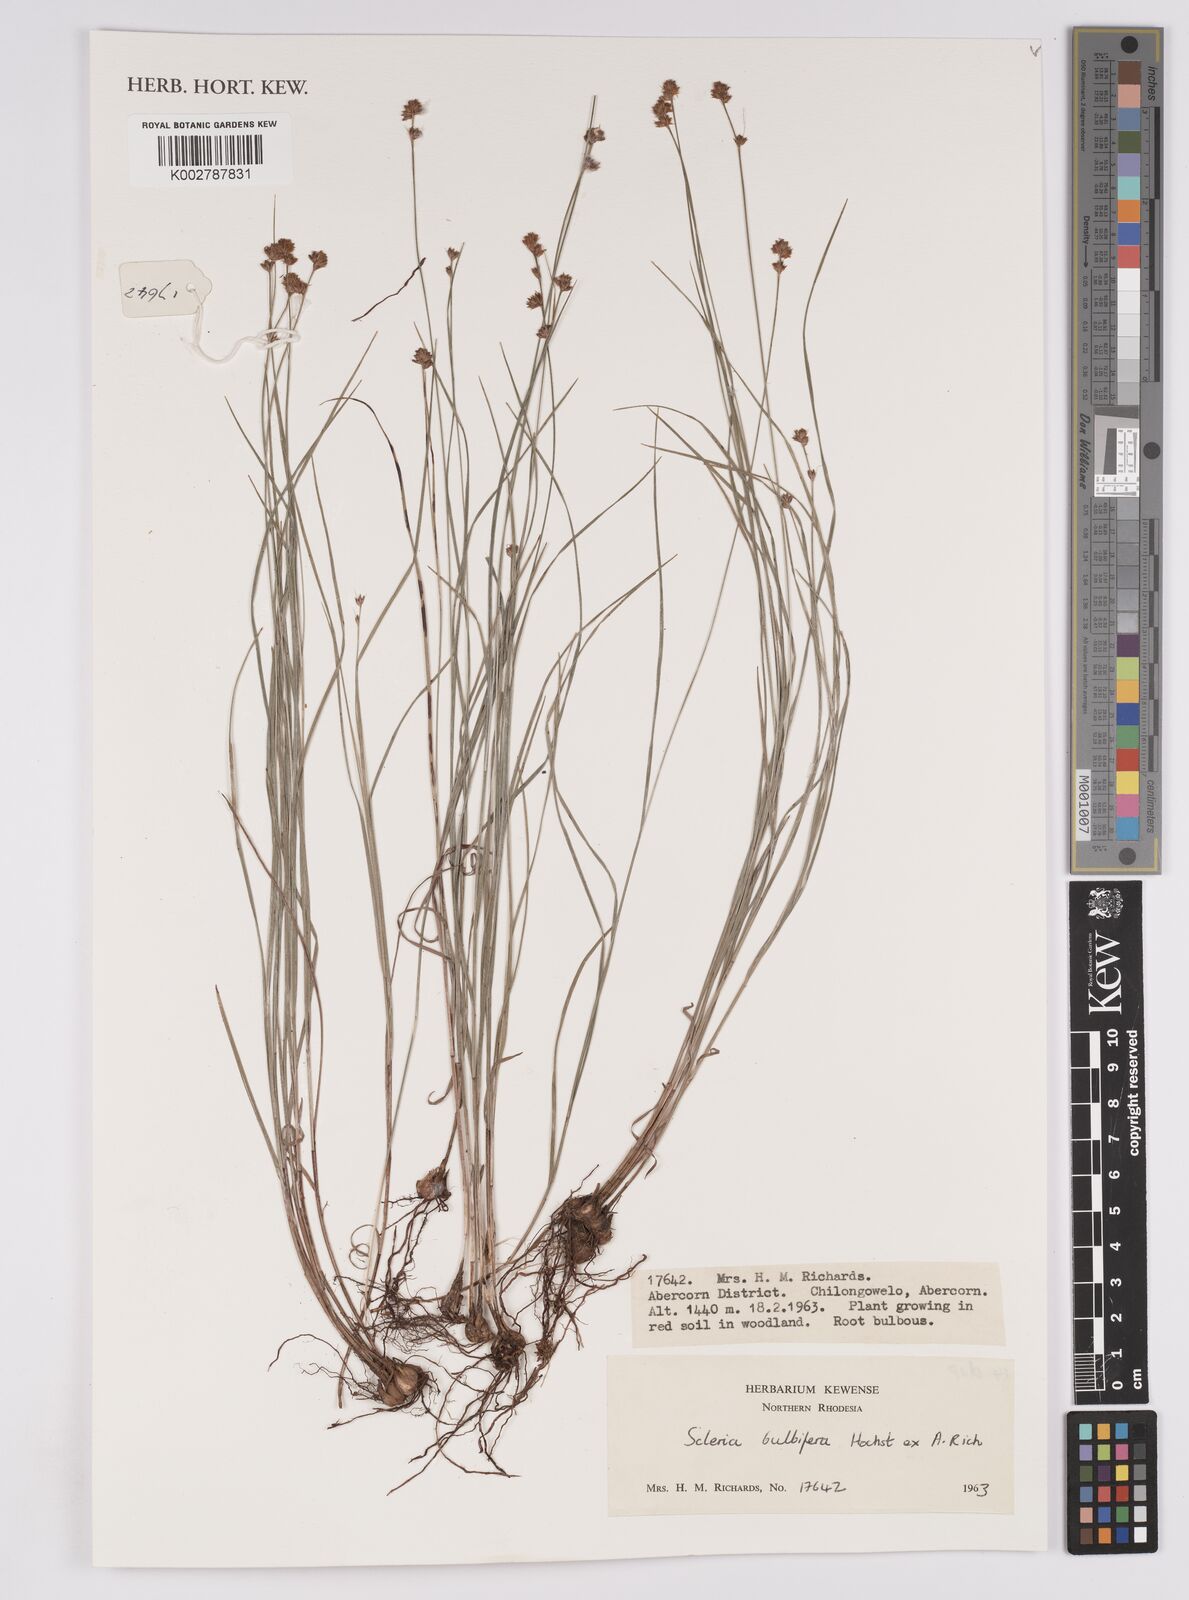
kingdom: Plantae
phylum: Tracheophyta
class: Liliopsida
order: Poales
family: Cyperaceae
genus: Scleria
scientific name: Scleria bulbifera
